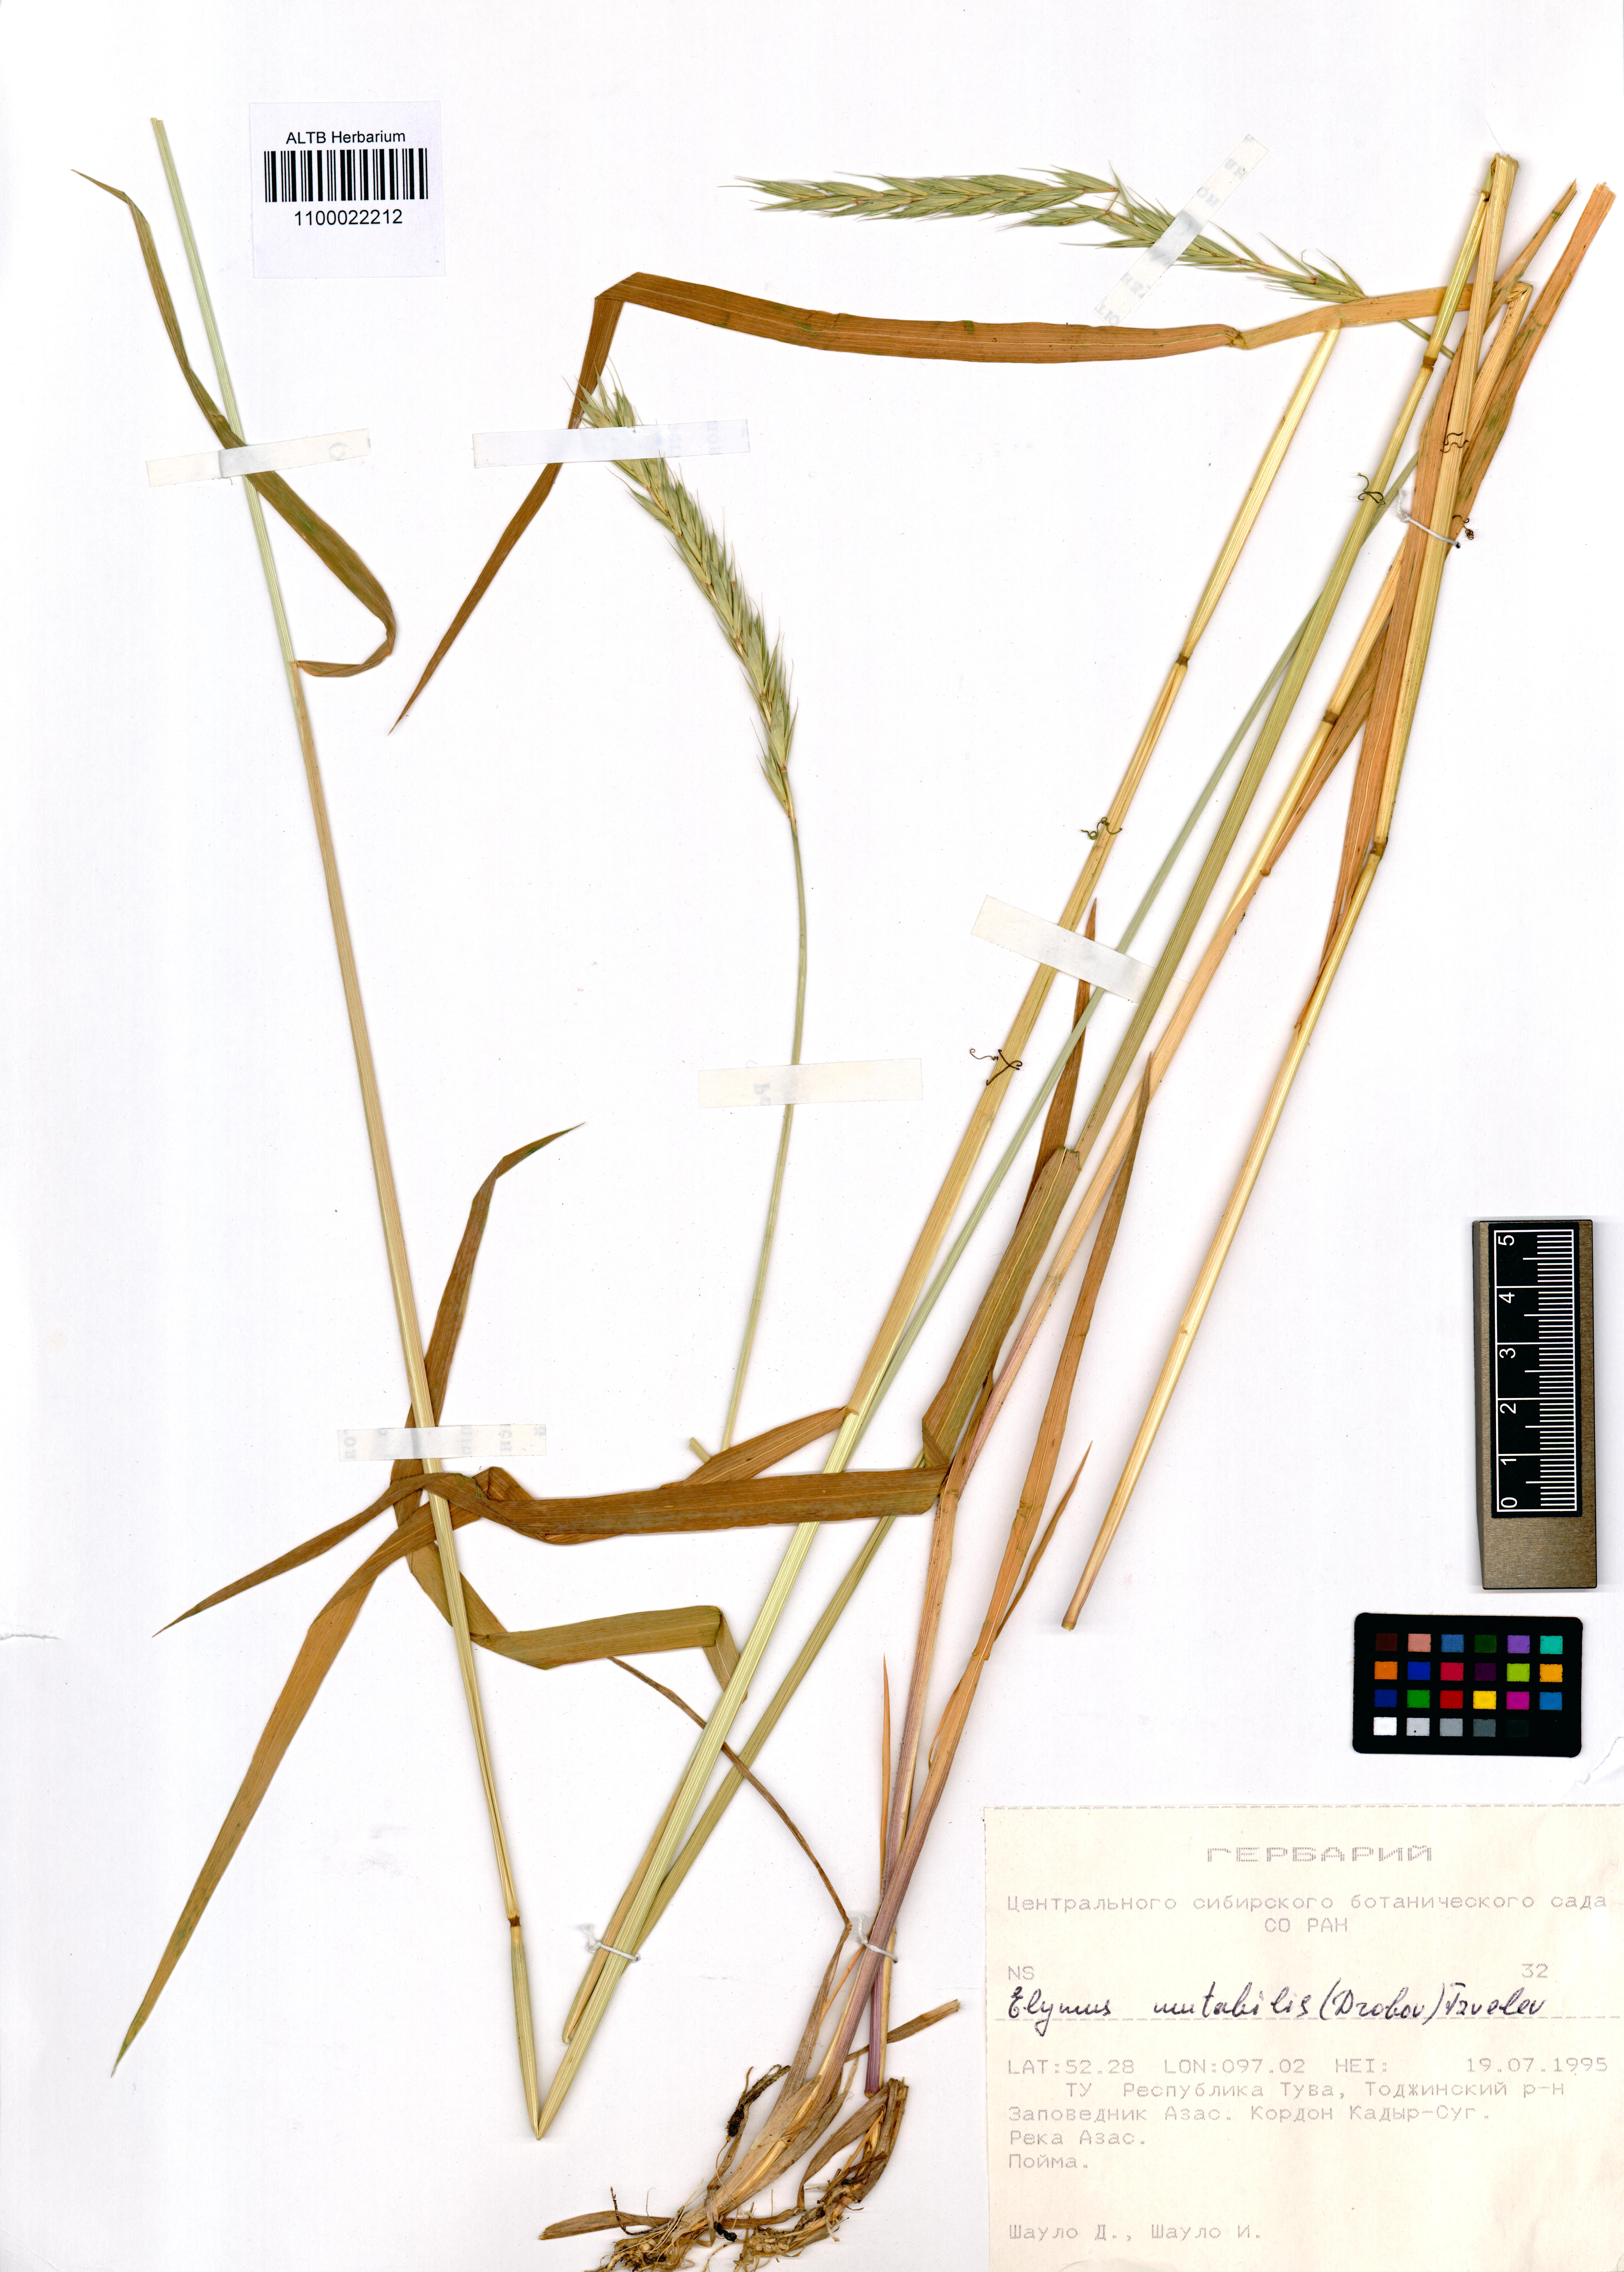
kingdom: Plantae
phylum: Tracheophyta
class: Liliopsida
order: Poales
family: Poaceae
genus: Elymus
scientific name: Elymus mutabilis
